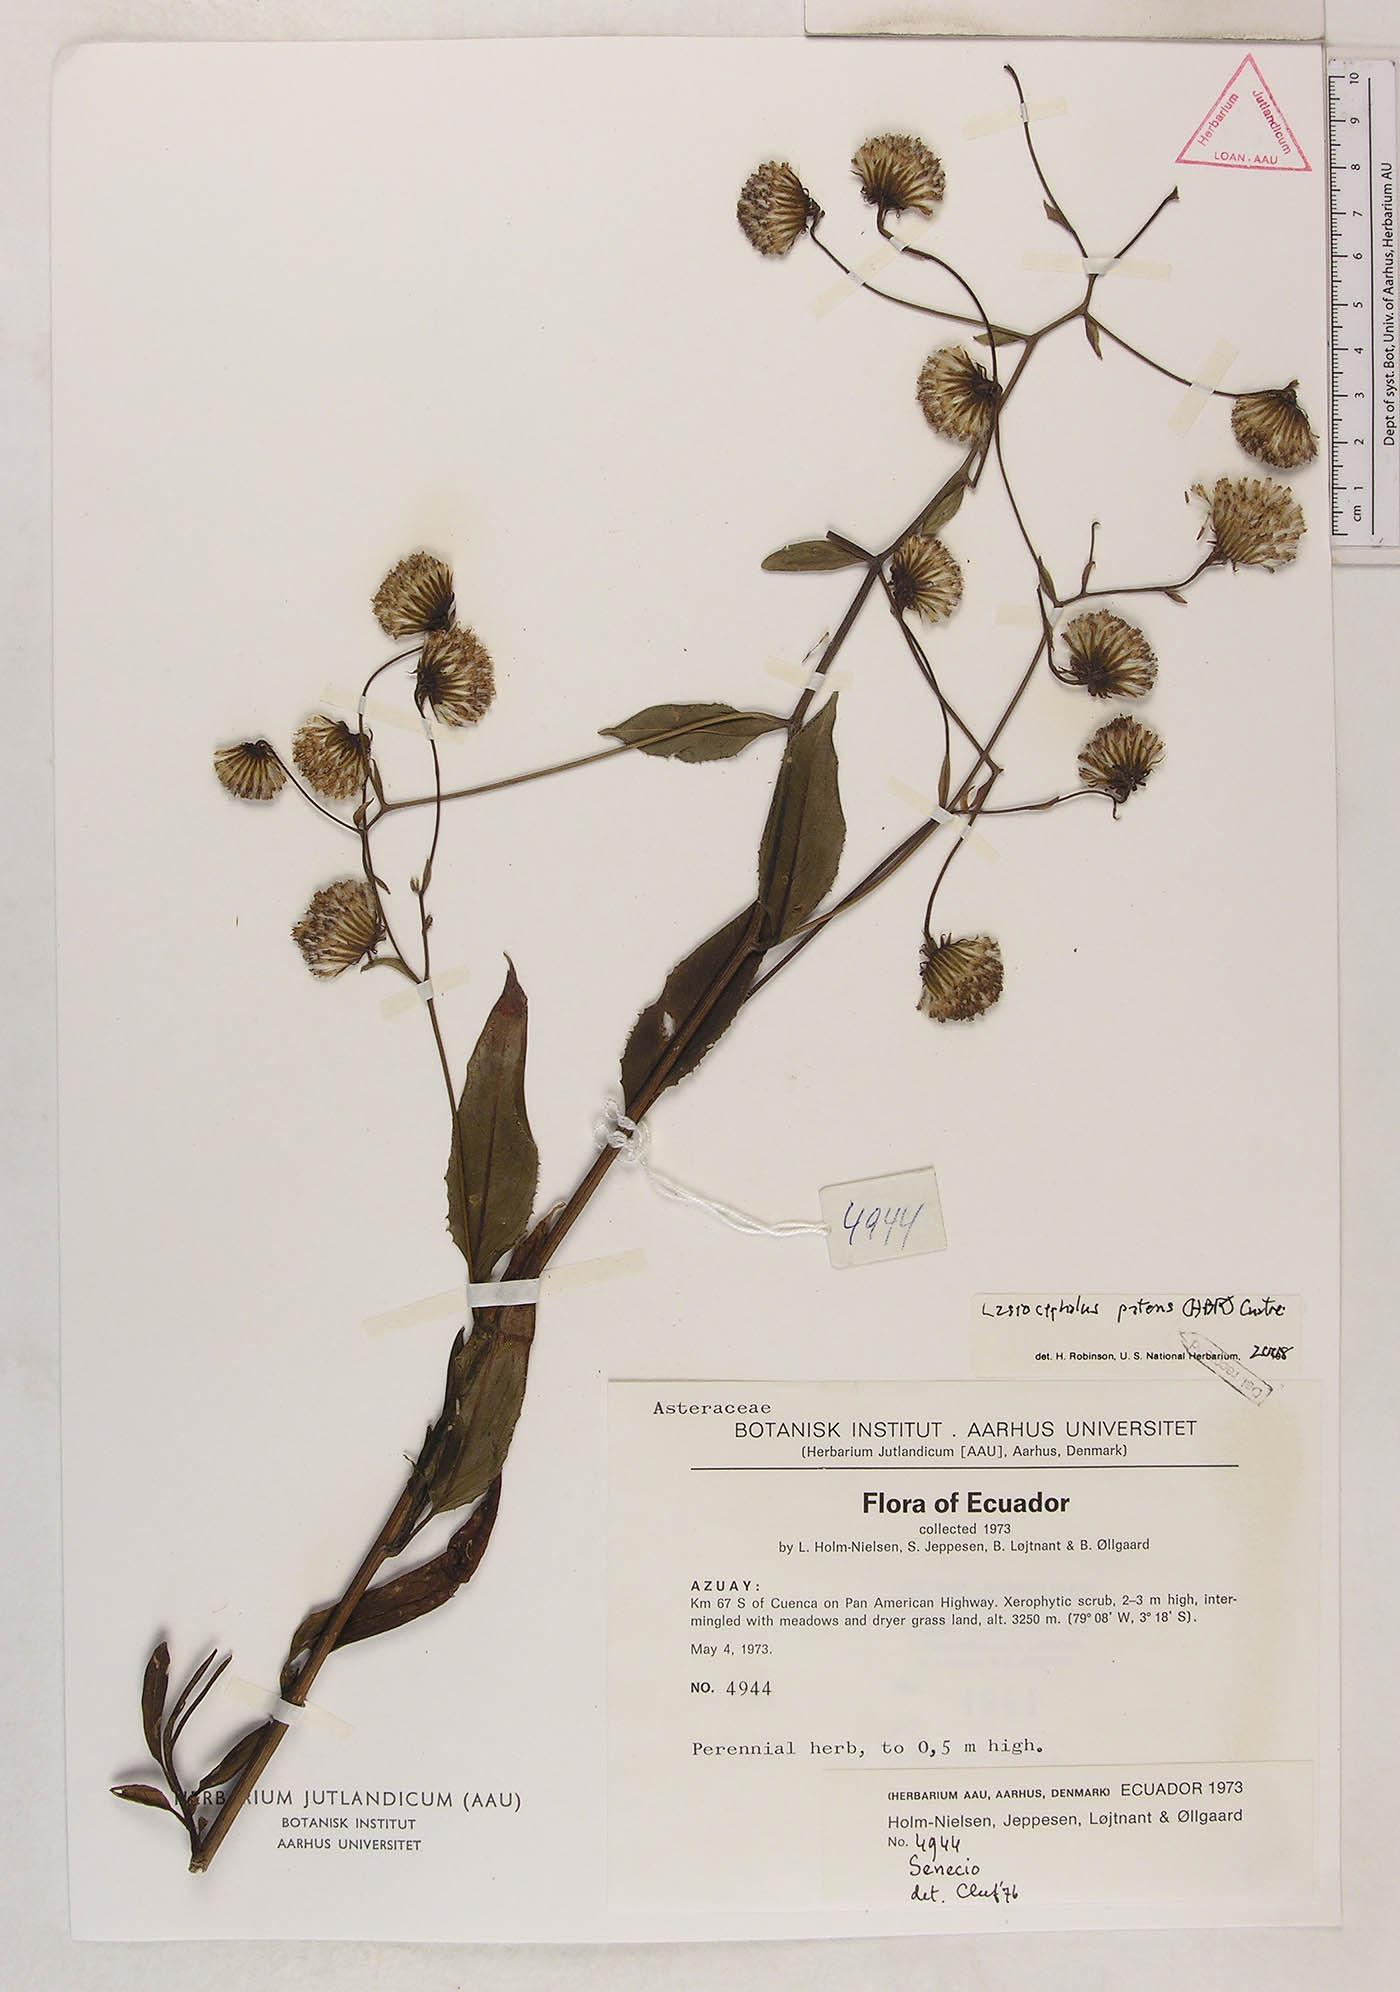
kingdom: Plantae
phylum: Tracheophyta
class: Magnoliopsida
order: Asterales
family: Asteraceae
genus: Aetheolaena
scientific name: Aetheolaena patens
